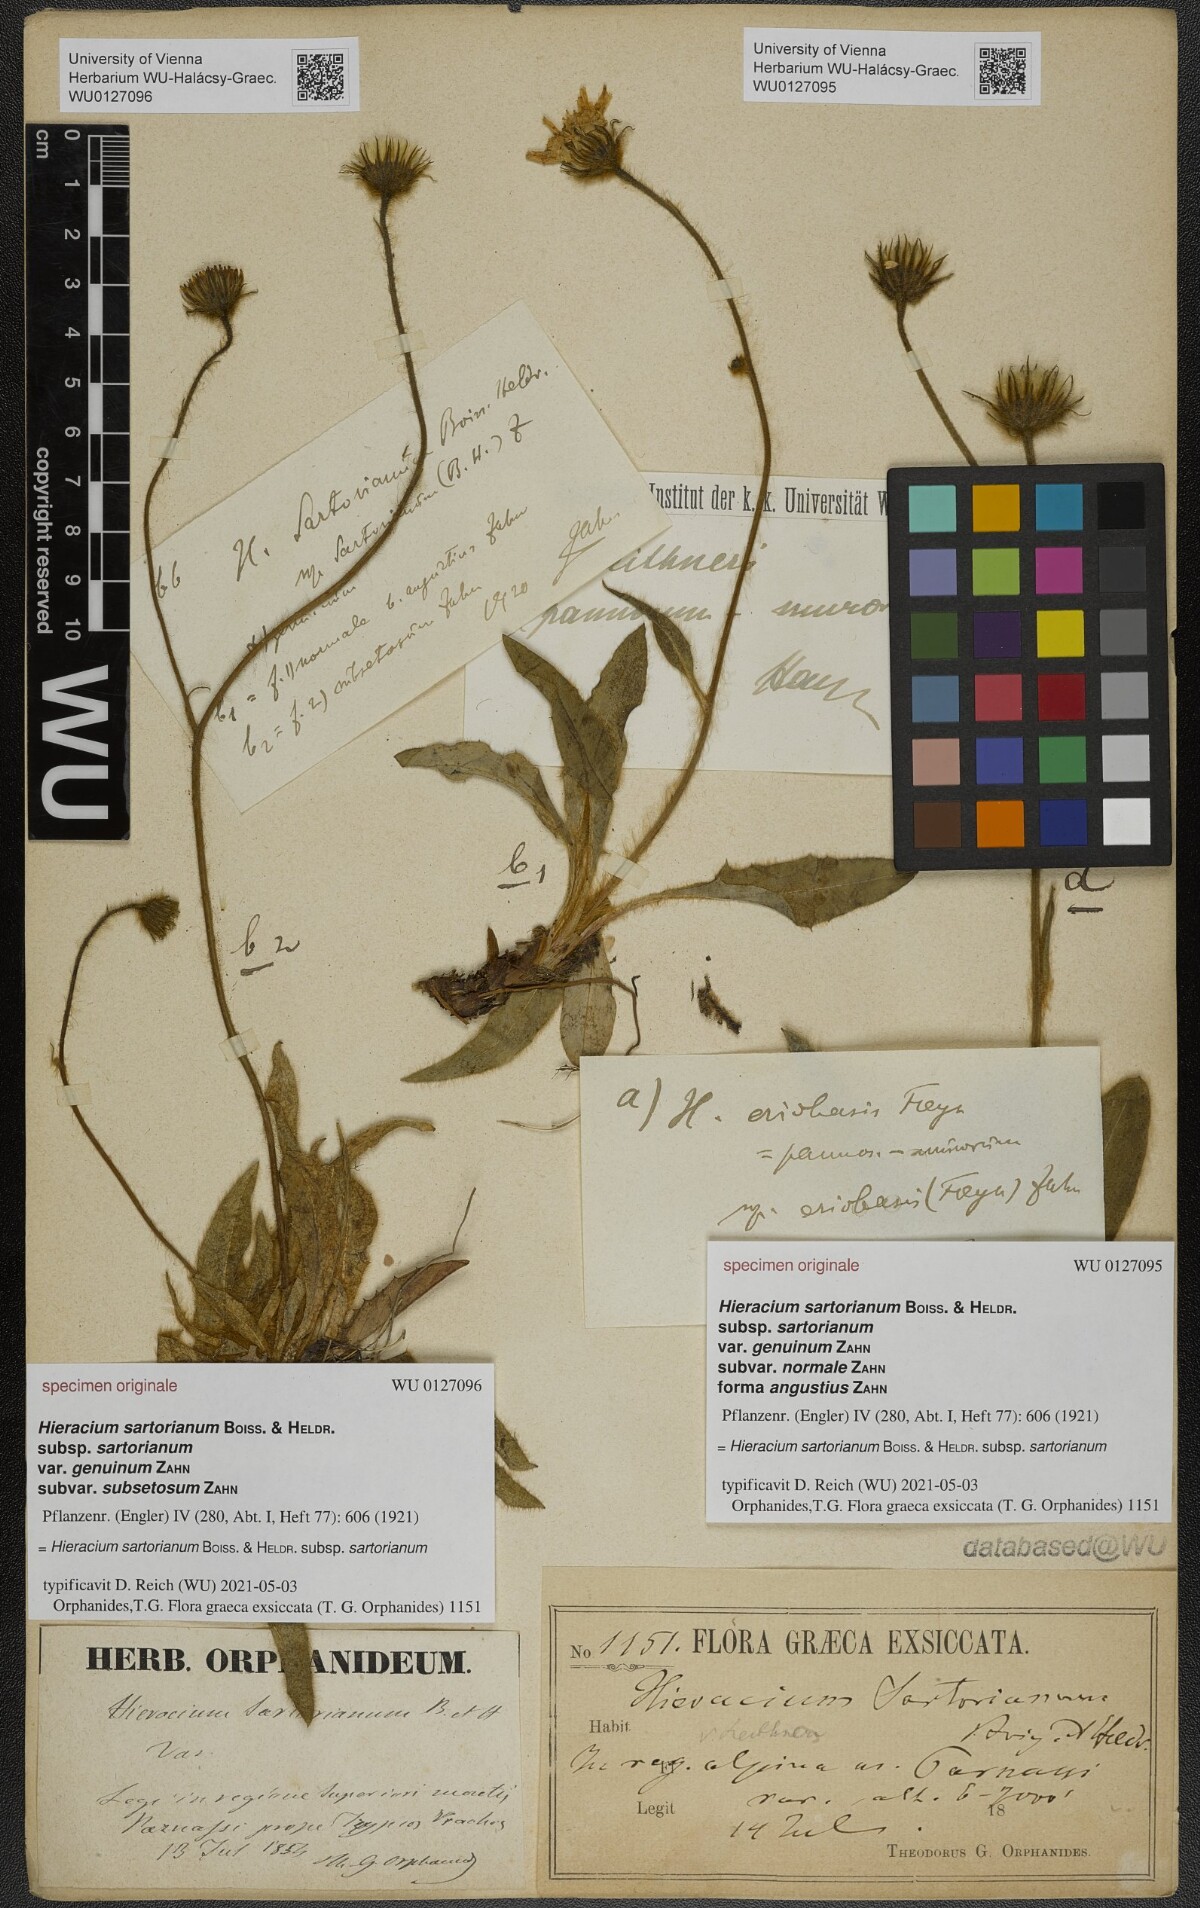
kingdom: Plantae
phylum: Tracheophyta
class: Magnoliopsida
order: Asterales
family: Asteraceae
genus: Hieracium
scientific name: Hieracium sartorianum
